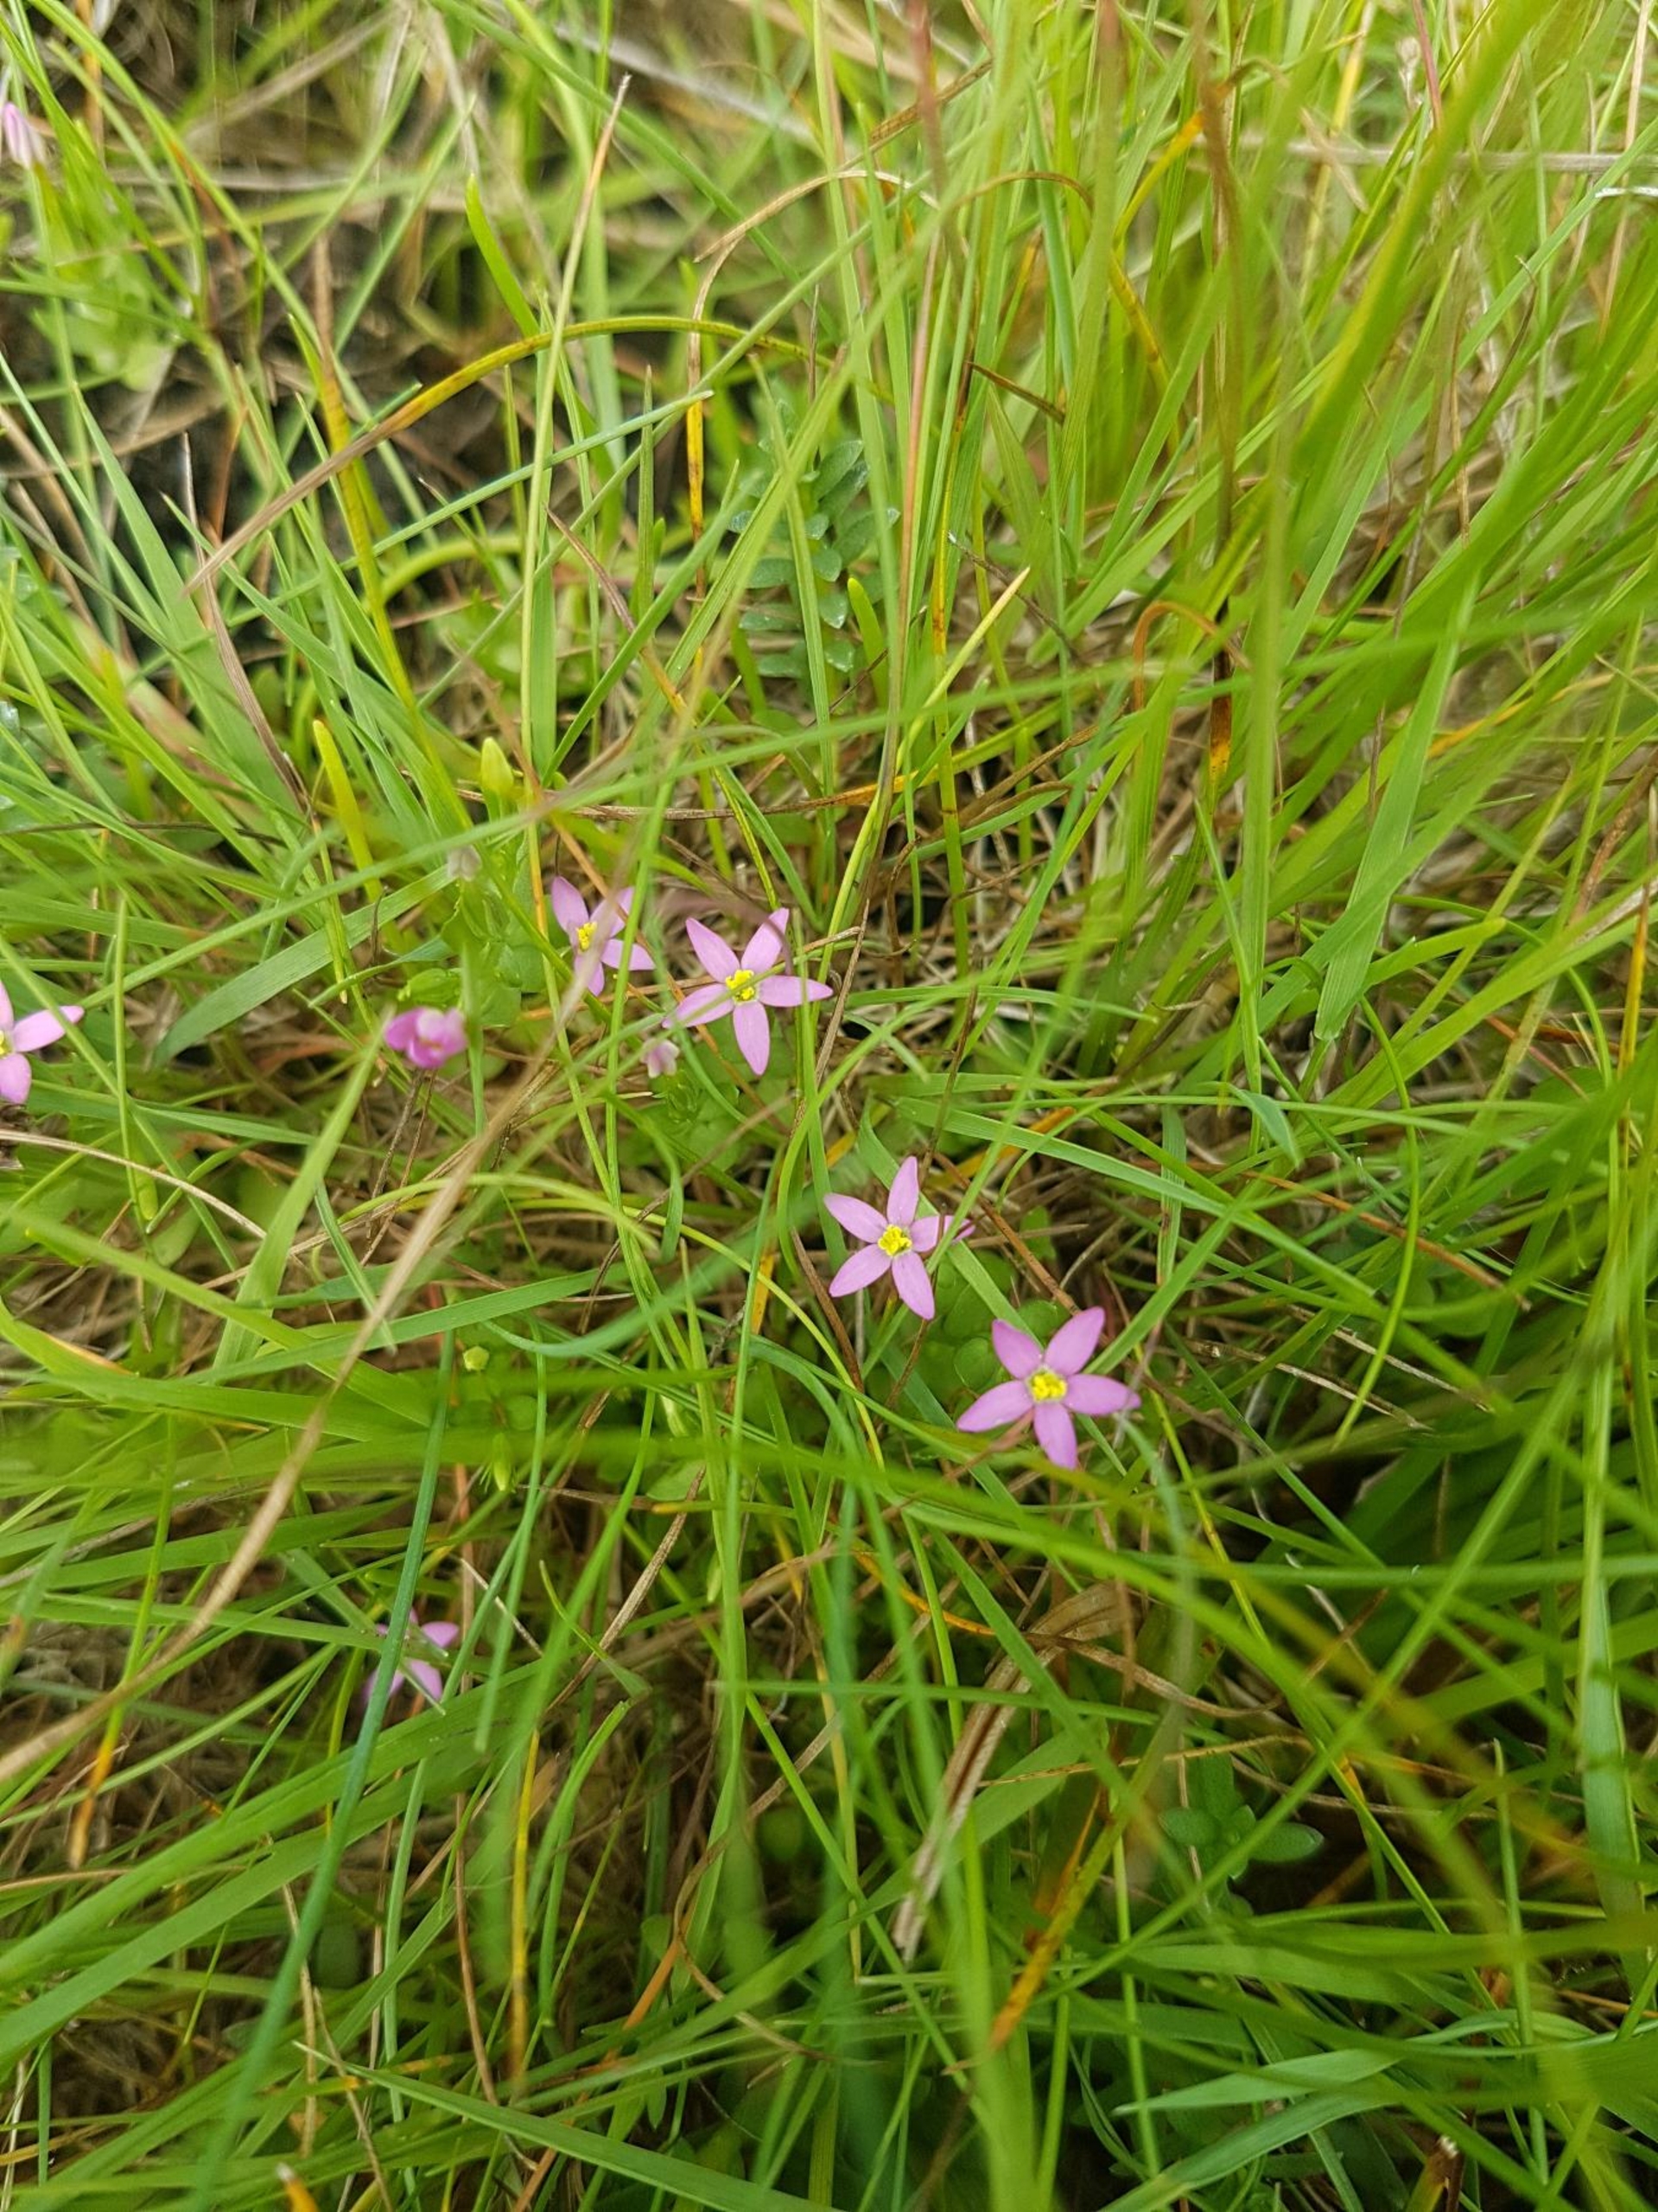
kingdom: Plantae
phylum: Tracheophyta
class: Magnoliopsida
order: Gentianales
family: Gentianaceae
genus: Centaurium
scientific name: Centaurium pulchellum
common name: Liden tusindgylden
